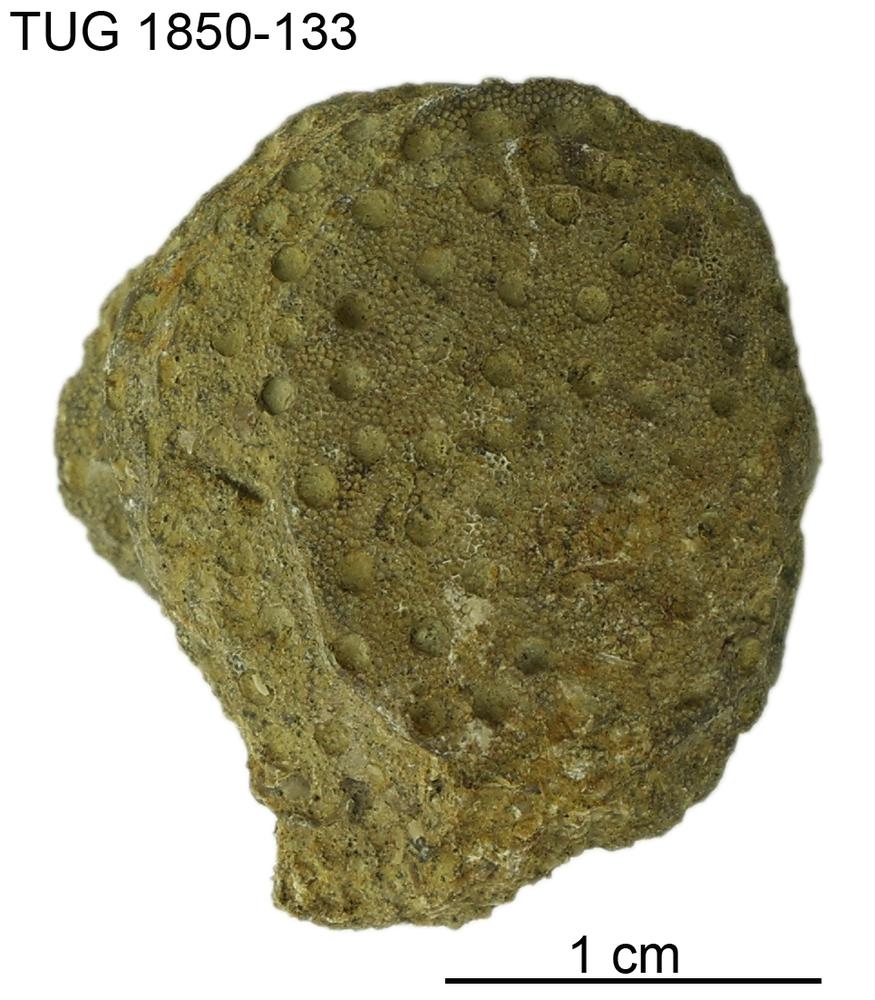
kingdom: Animalia
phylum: Cnidaria
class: Anthozoa
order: Heliolitina
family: Heliolitidae
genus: Heliolites
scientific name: Heliolites
